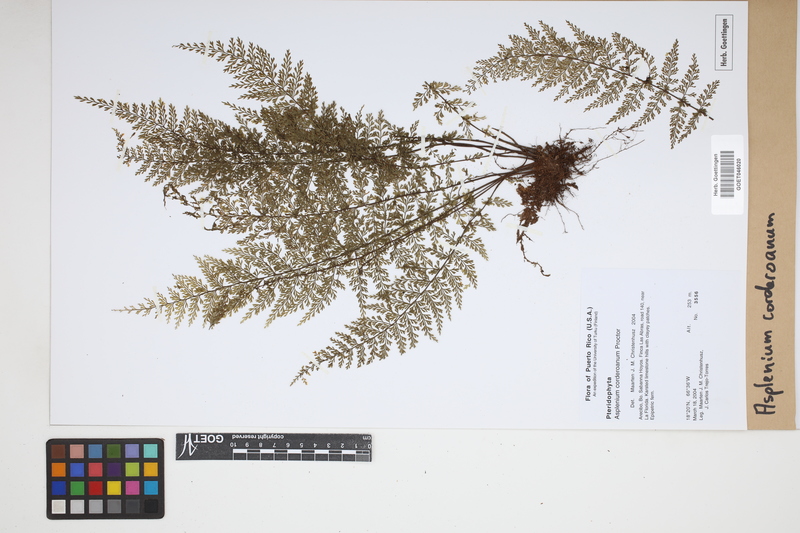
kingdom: Plantae
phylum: Tracheophyta
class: Polypodiopsida
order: Polypodiales
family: Aspleniaceae
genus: Asplenium
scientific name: Asplenium corderoanum
